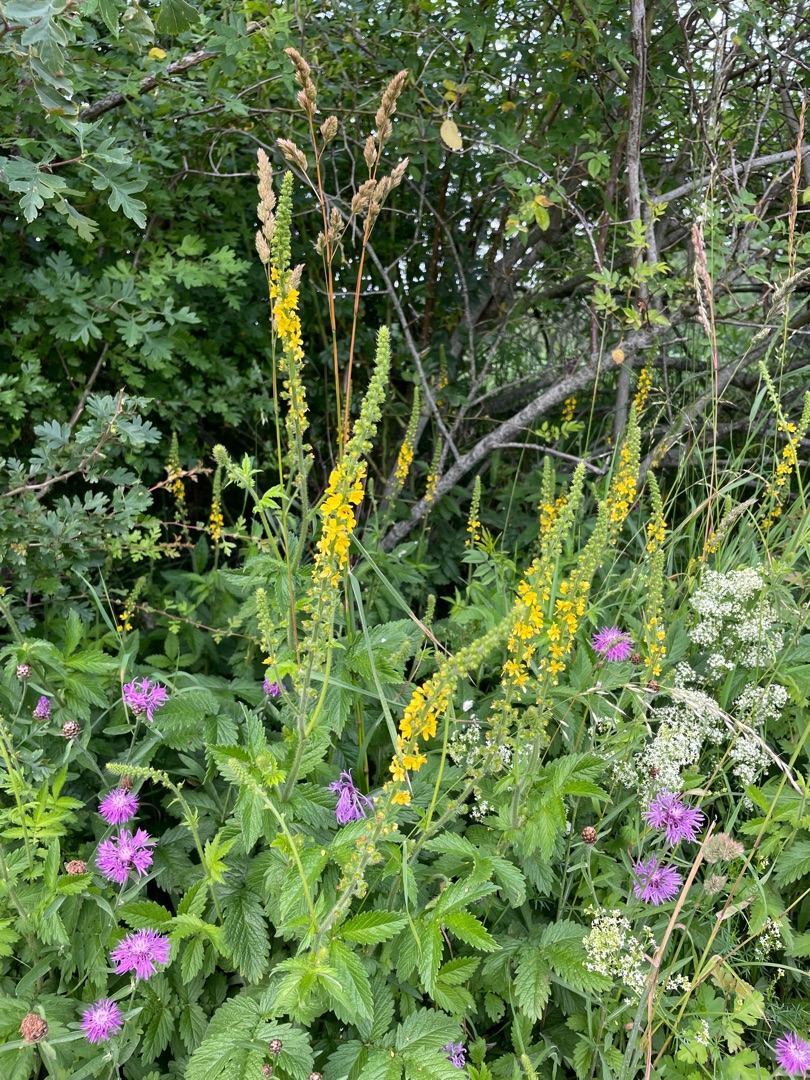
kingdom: Plantae
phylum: Tracheophyta
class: Magnoliopsida
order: Rosales
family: Rosaceae
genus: Agrimonia
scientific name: Agrimonia
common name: Agermåneslægten
